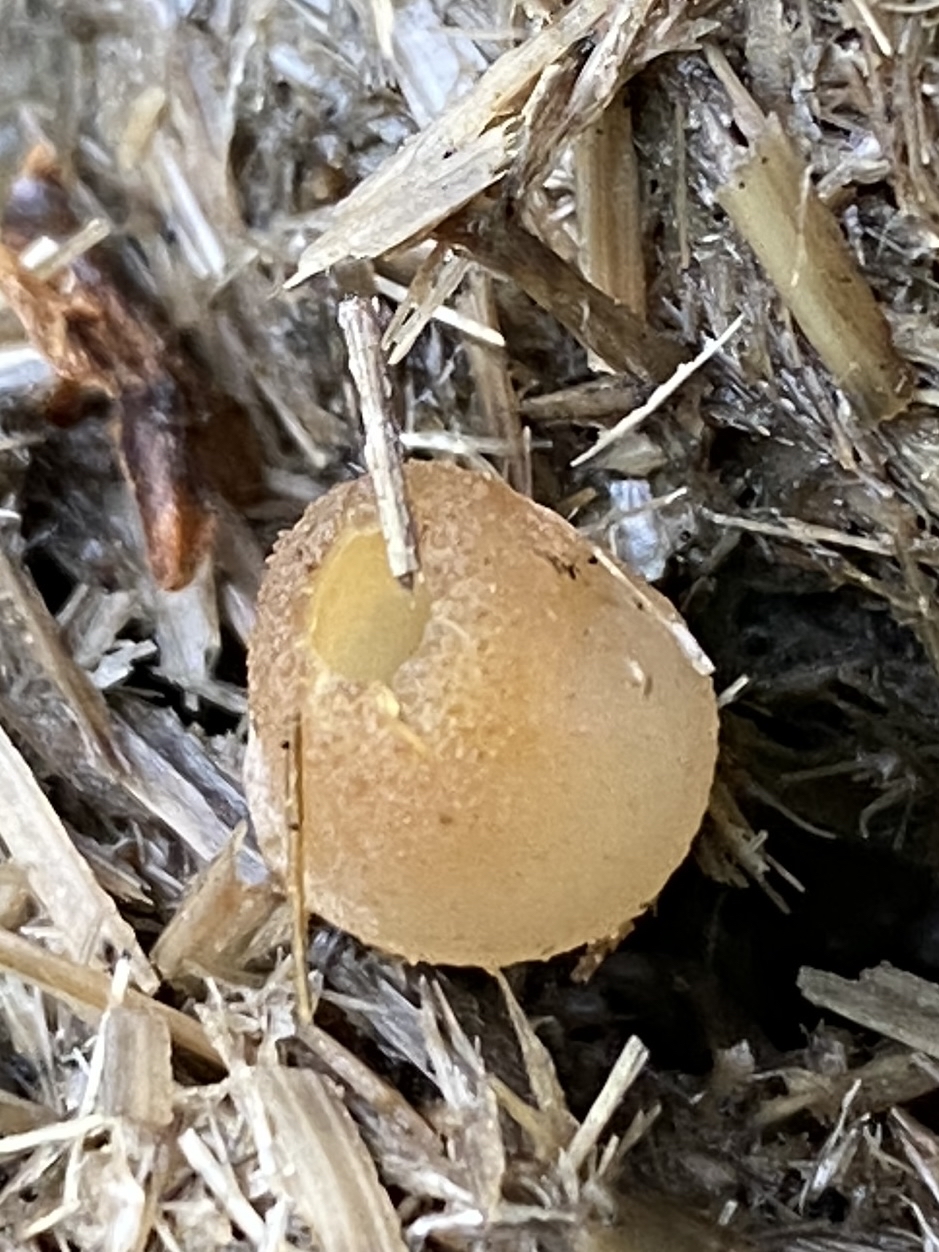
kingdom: Fungi
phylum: Ascomycota
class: Pezizomycetes
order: Pezizales
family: Pezizaceae
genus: Peziza
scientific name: Peziza fimeti
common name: møg-bægersvamp
